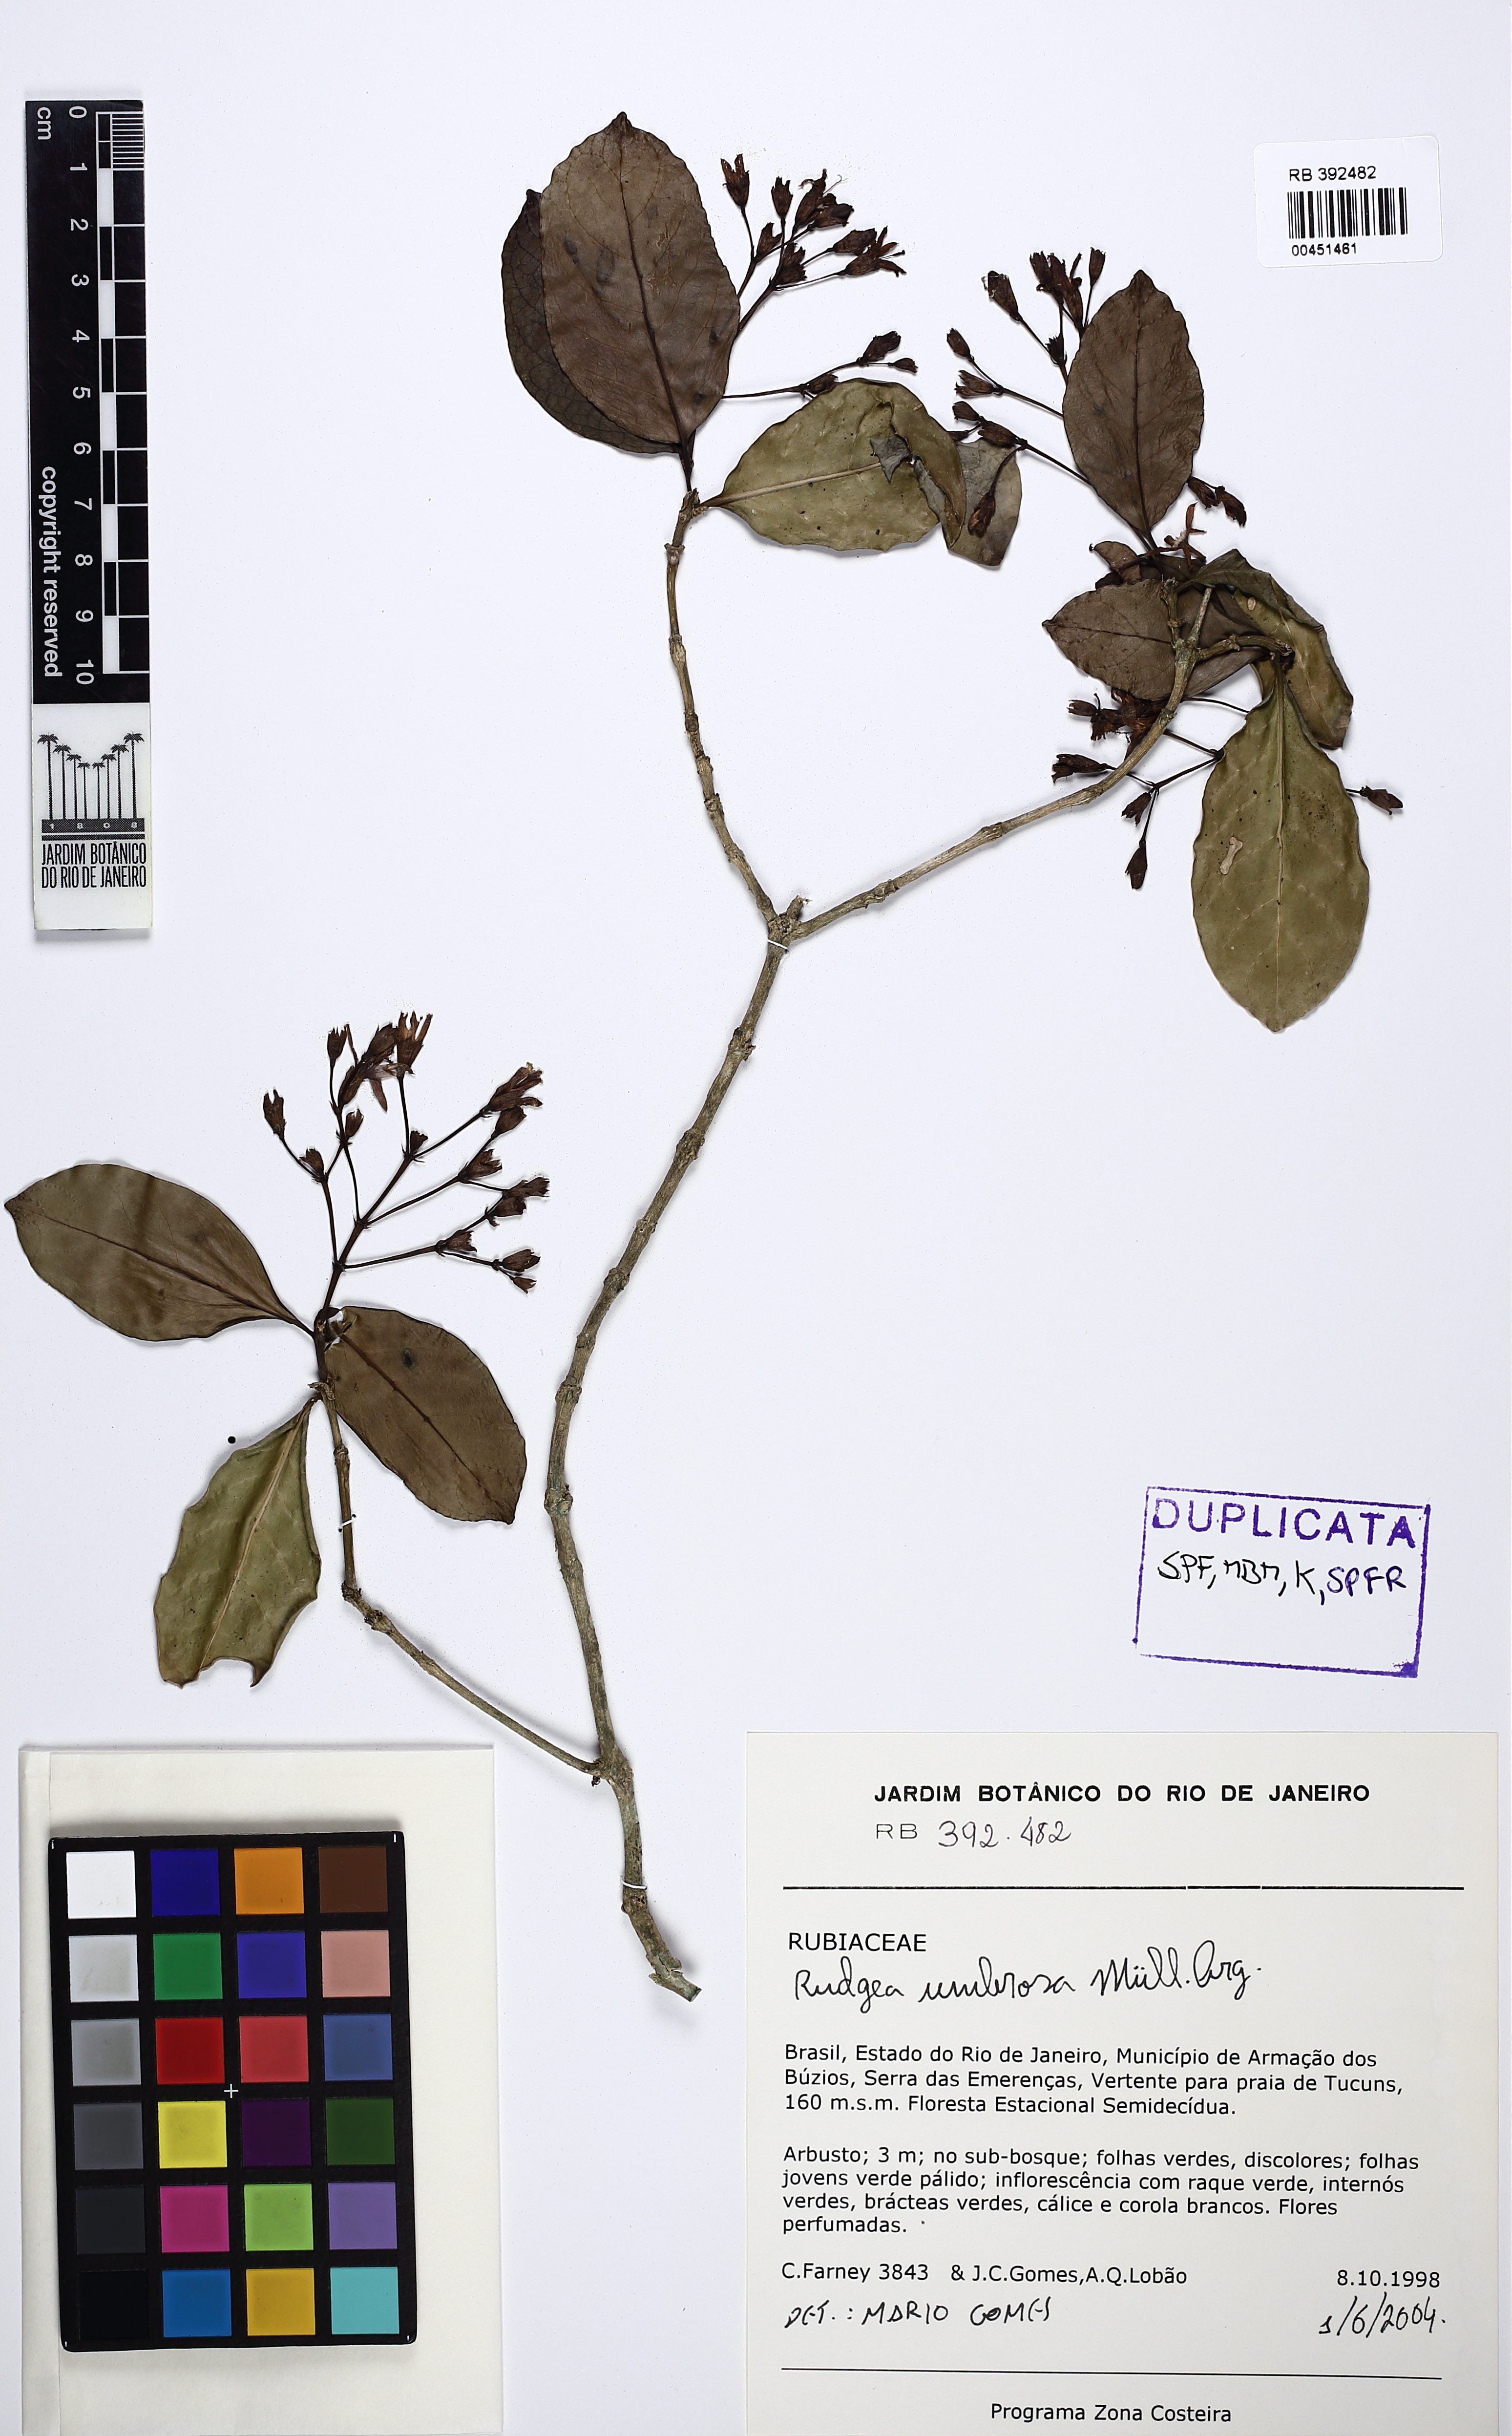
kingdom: Plantae
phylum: Tracheophyta
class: Magnoliopsida
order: Gentianales
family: Rubiaceae
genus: Rudgea
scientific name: Rudgea umbrosa
